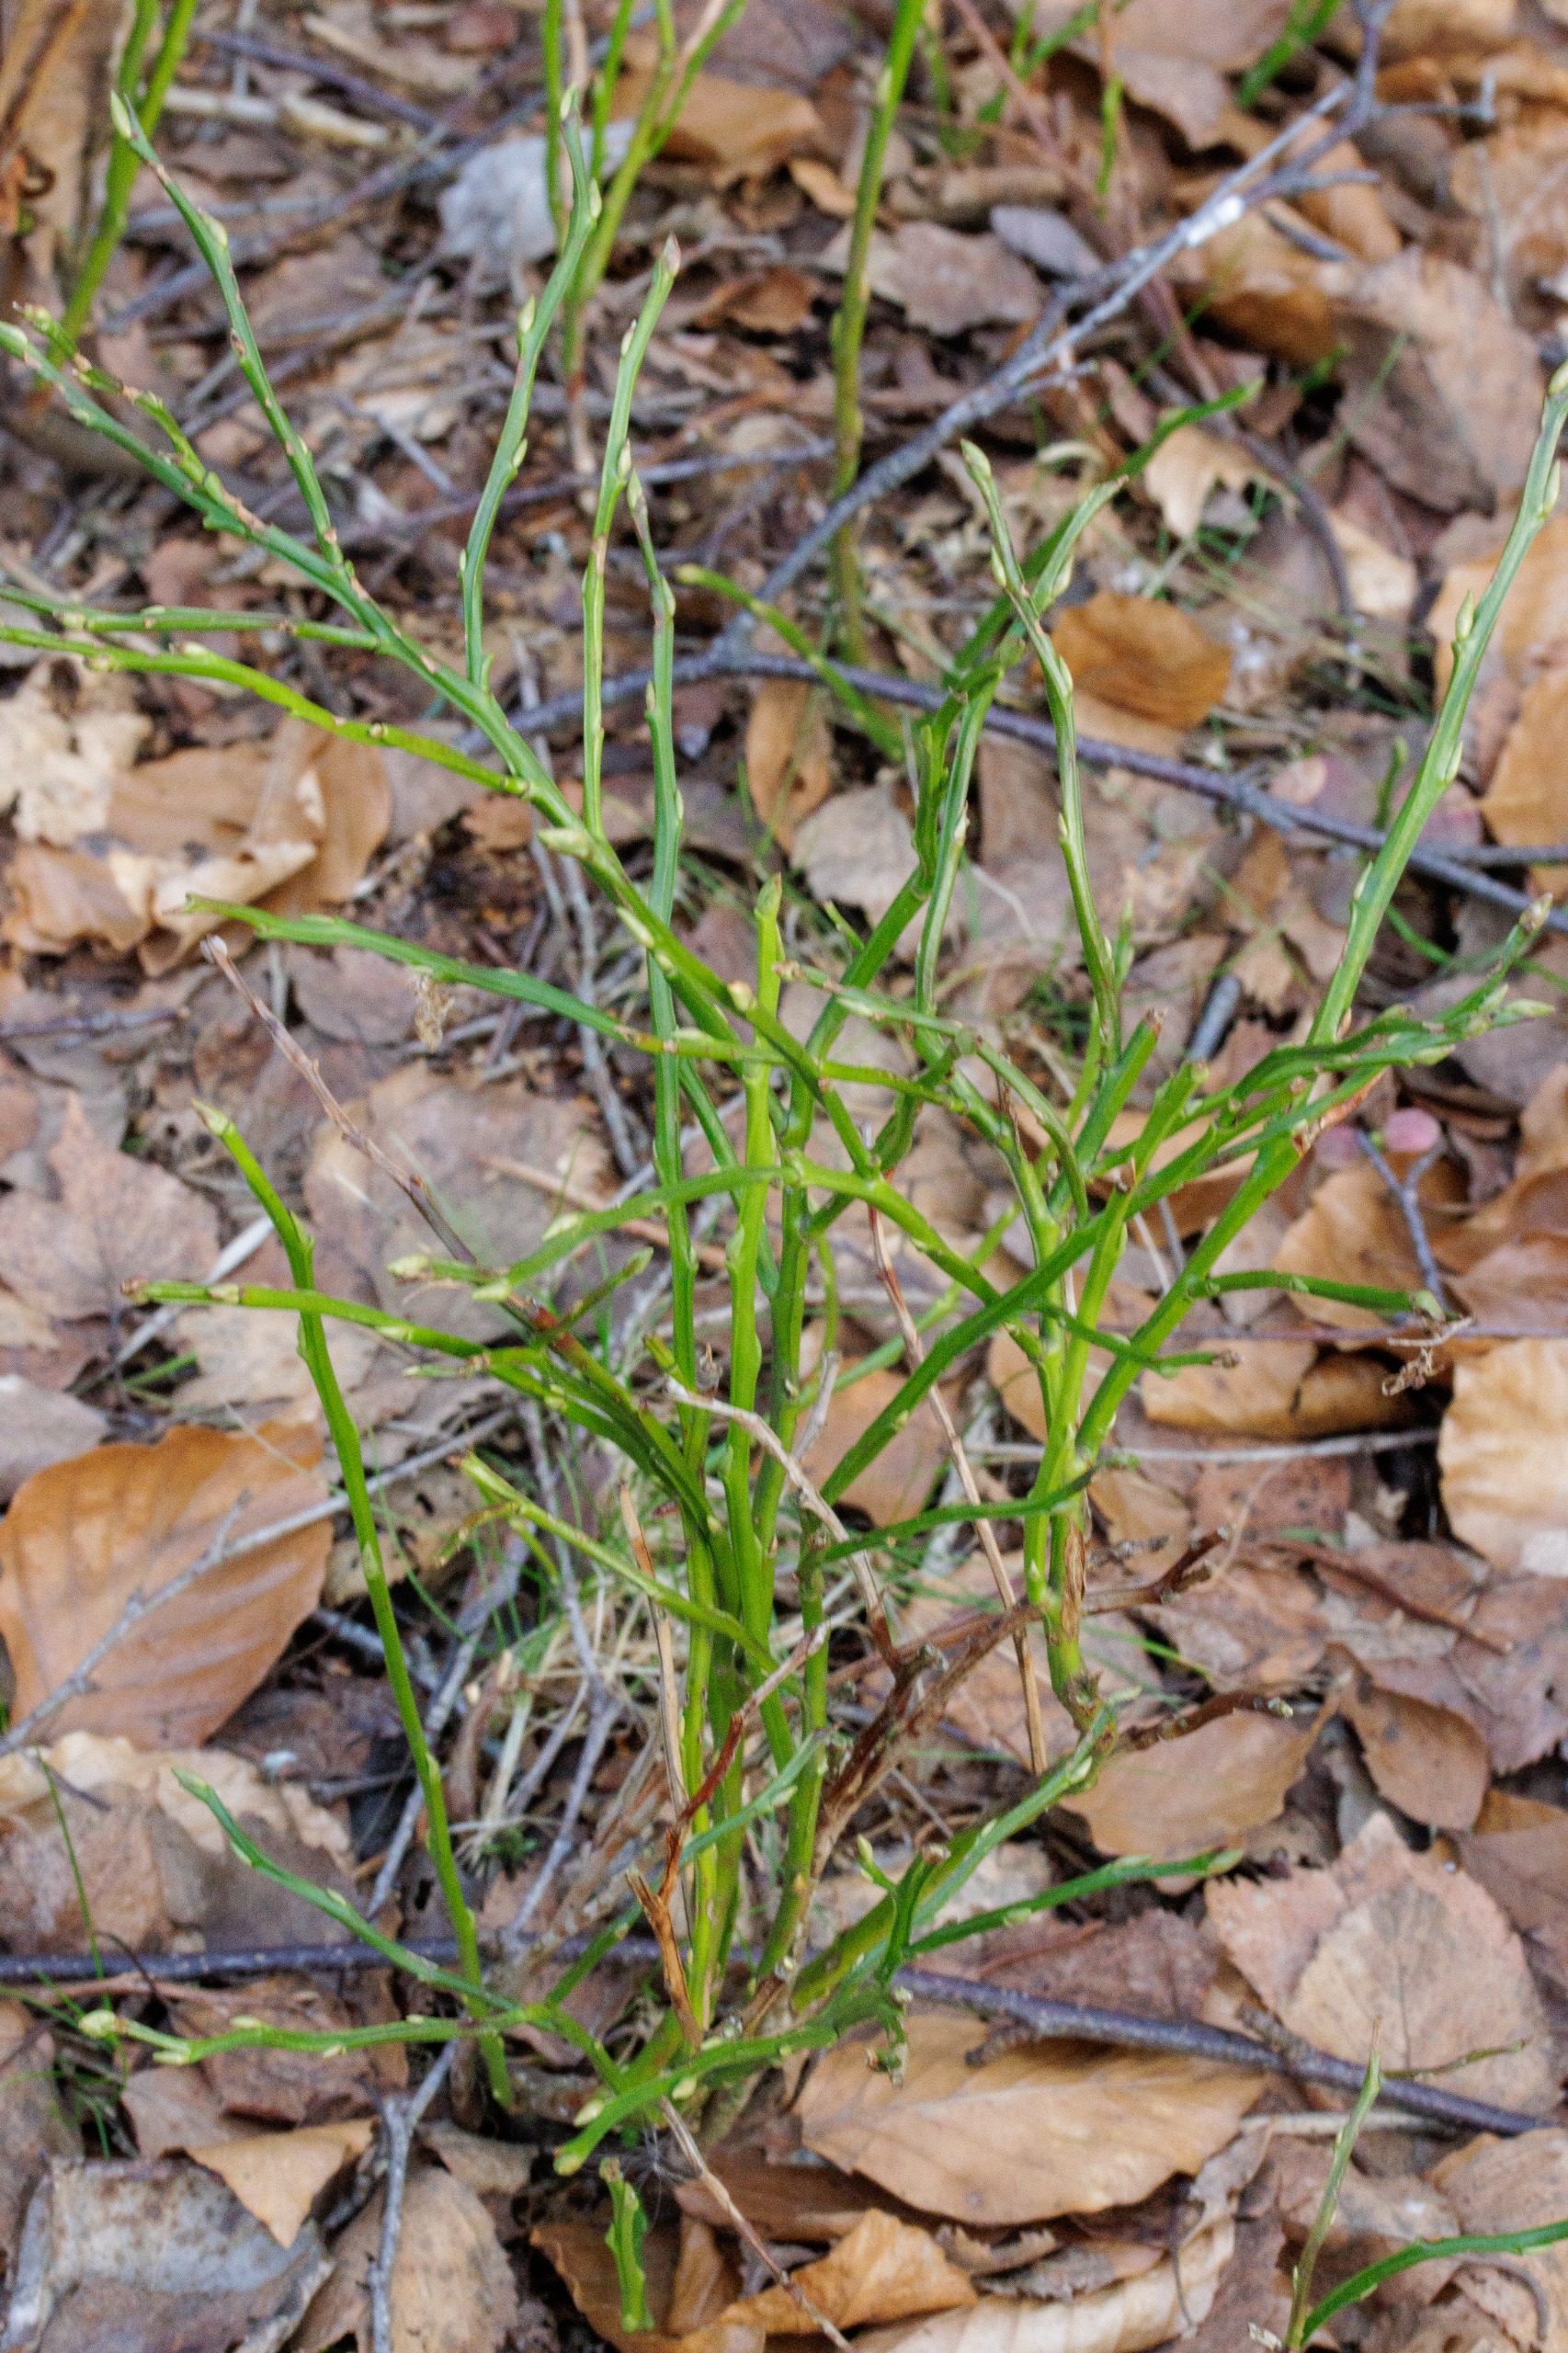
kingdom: Plantae
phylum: Tracheophyta
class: Magnoliopsida
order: Ericales
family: Ericaceae
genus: Vaccinium
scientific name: Vaccinium myrtillus
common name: Blåbær
